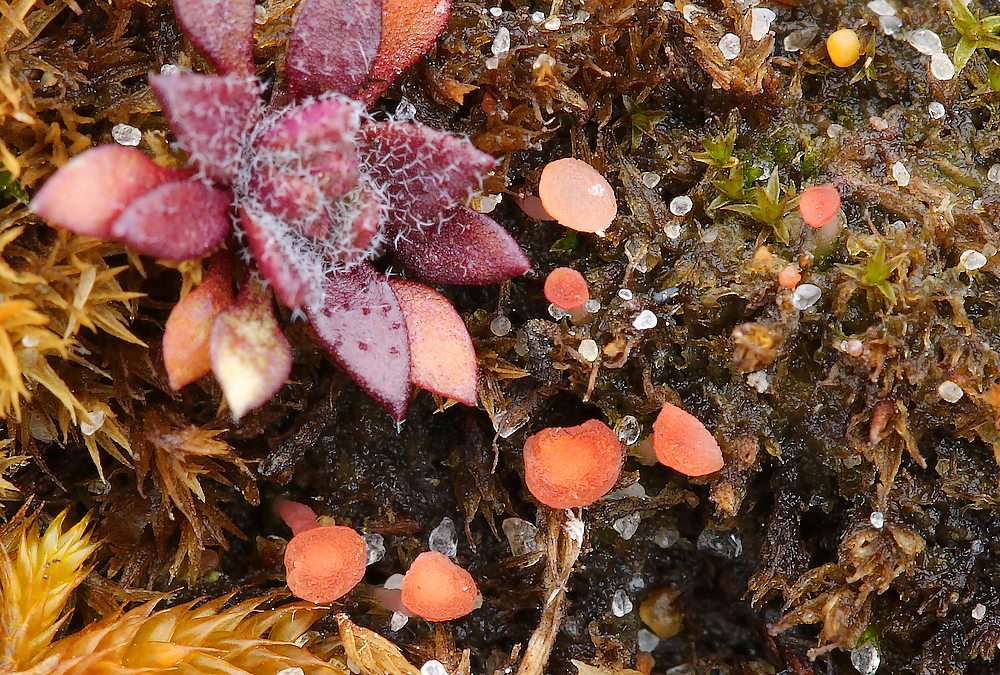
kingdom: Fungi
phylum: Ascomycota
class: Leotiomycetes
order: Helotiales
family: Hyaloscyphaceae
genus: Roseodiscus
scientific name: Roseodiscus formosus
